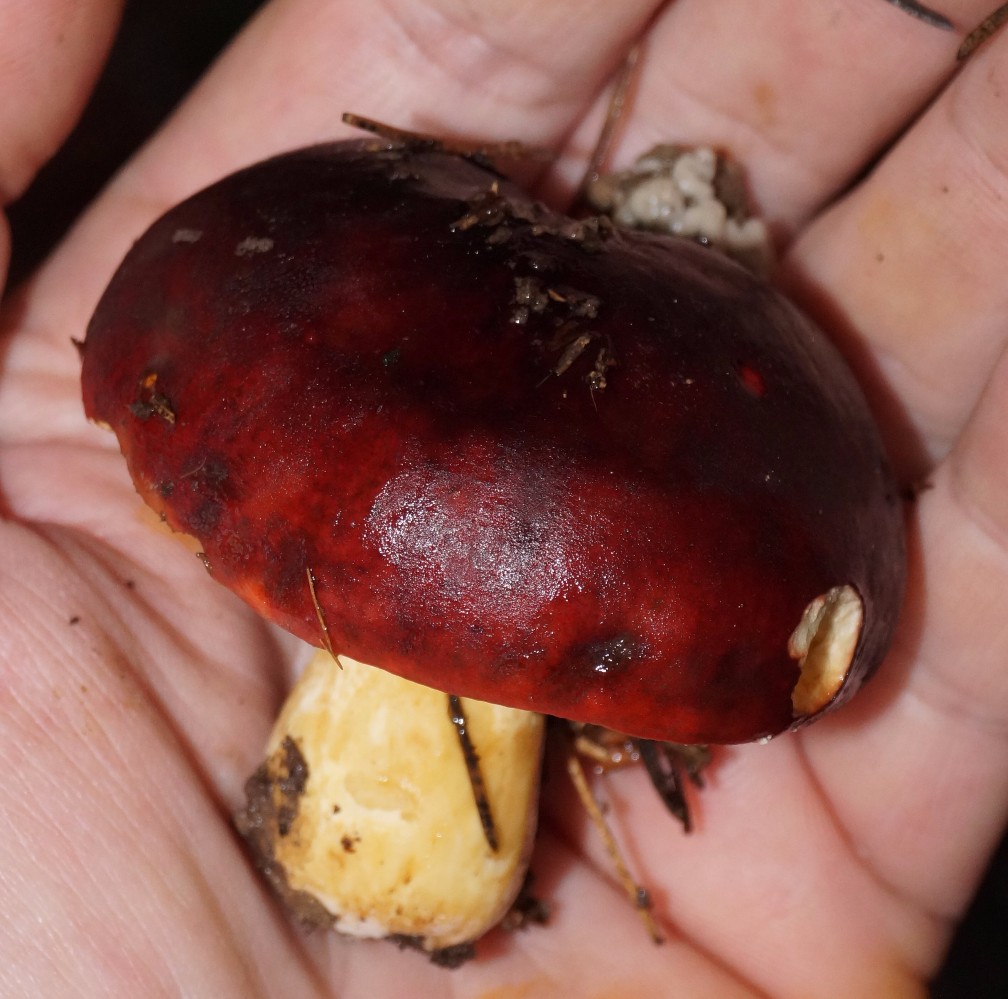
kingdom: Fungi
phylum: Basidiomycota
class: Agaricomycetes
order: Russulales
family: Russulaceae
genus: Russula
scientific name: Russula viscida
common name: knippe-skørhat
